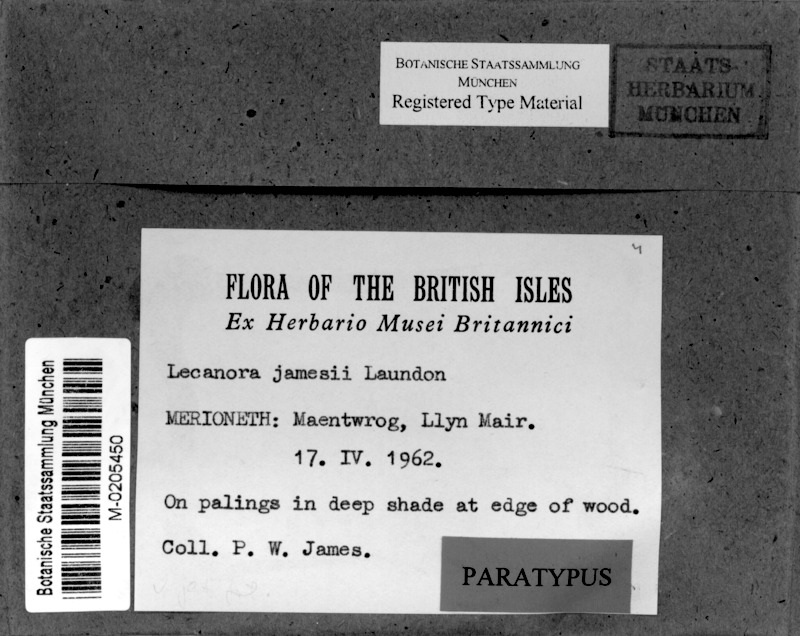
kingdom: Fungi
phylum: Ascomycota
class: Lecanoromycetes
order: Lecanorales
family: Lecanoraceae
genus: Lecanora
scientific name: Lecanora jamesii
